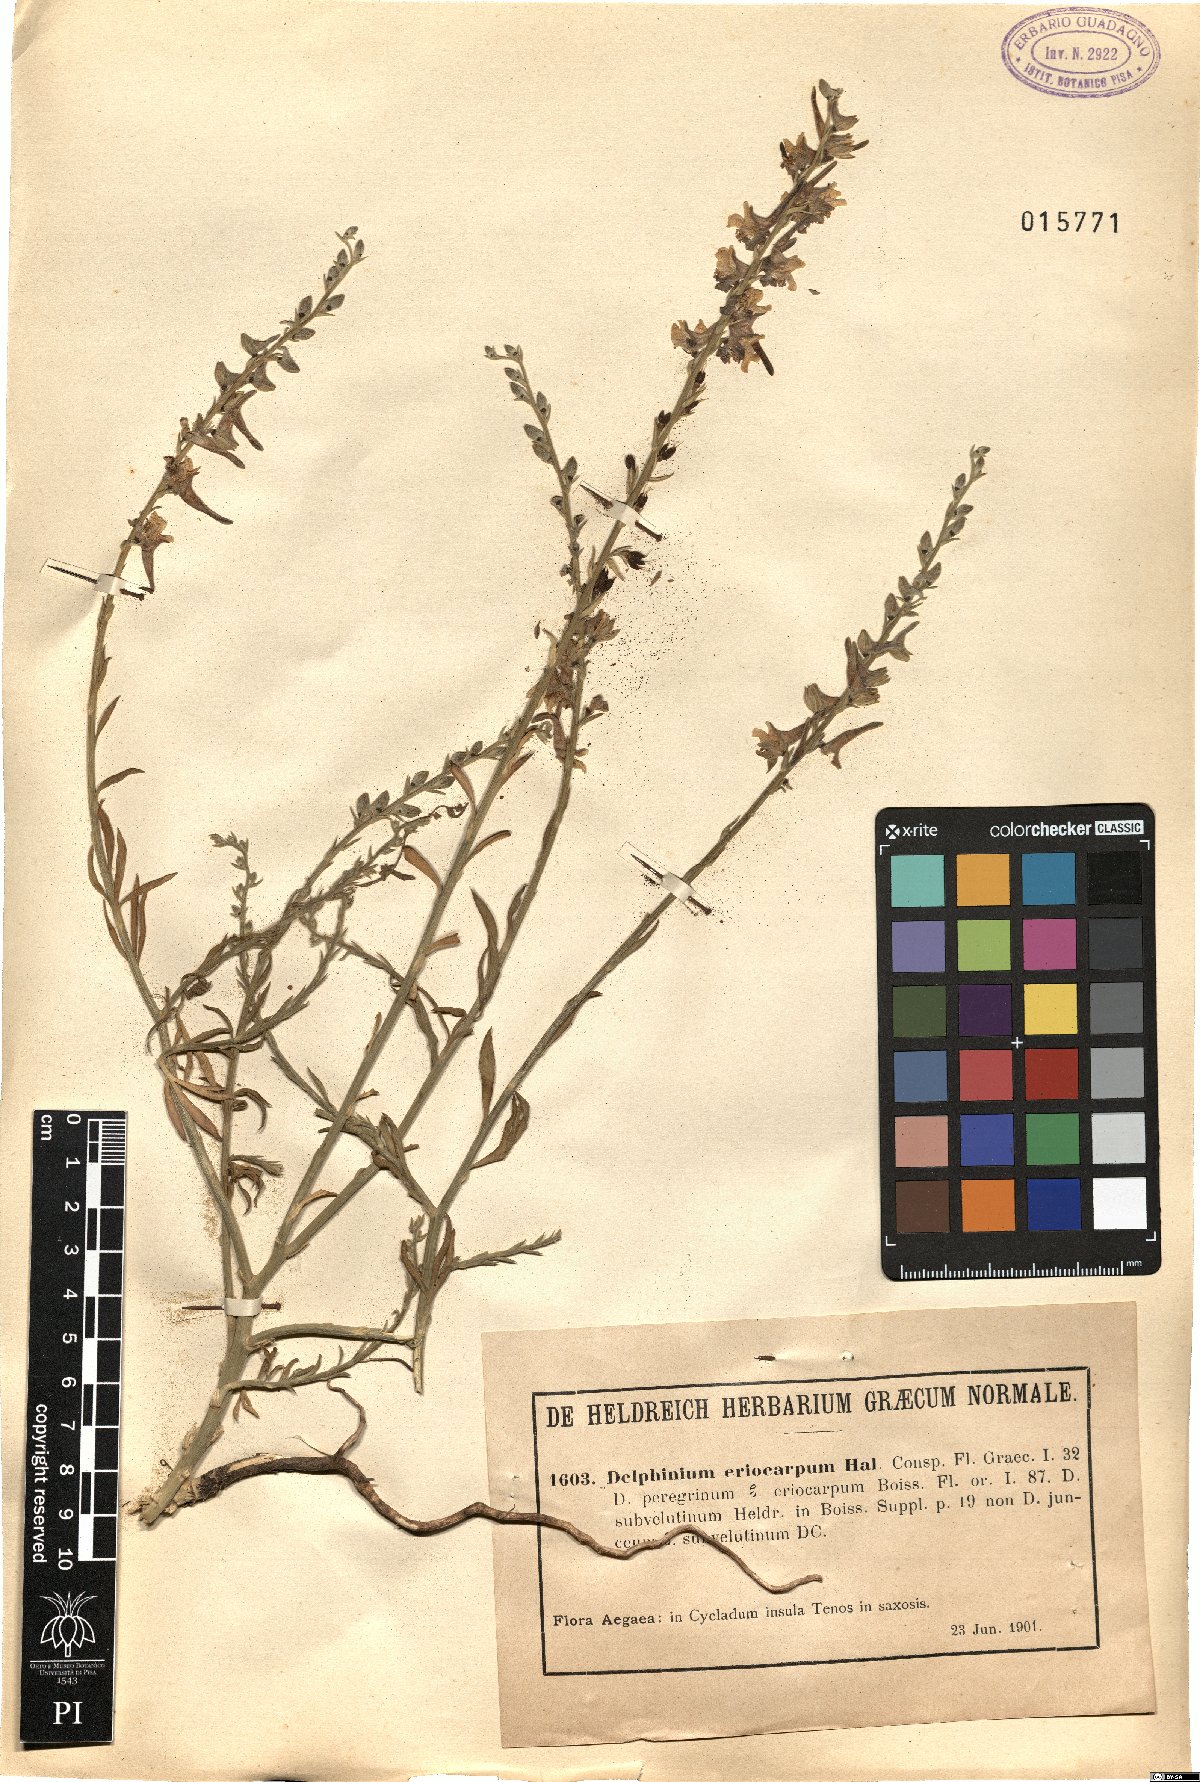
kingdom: Plantae
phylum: Tracheophyta
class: Magnoliopsida
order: Ranunculales
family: Ranunculaceae
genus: Delphinium
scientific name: Delphinium peregrinum
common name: Violet larkspur
